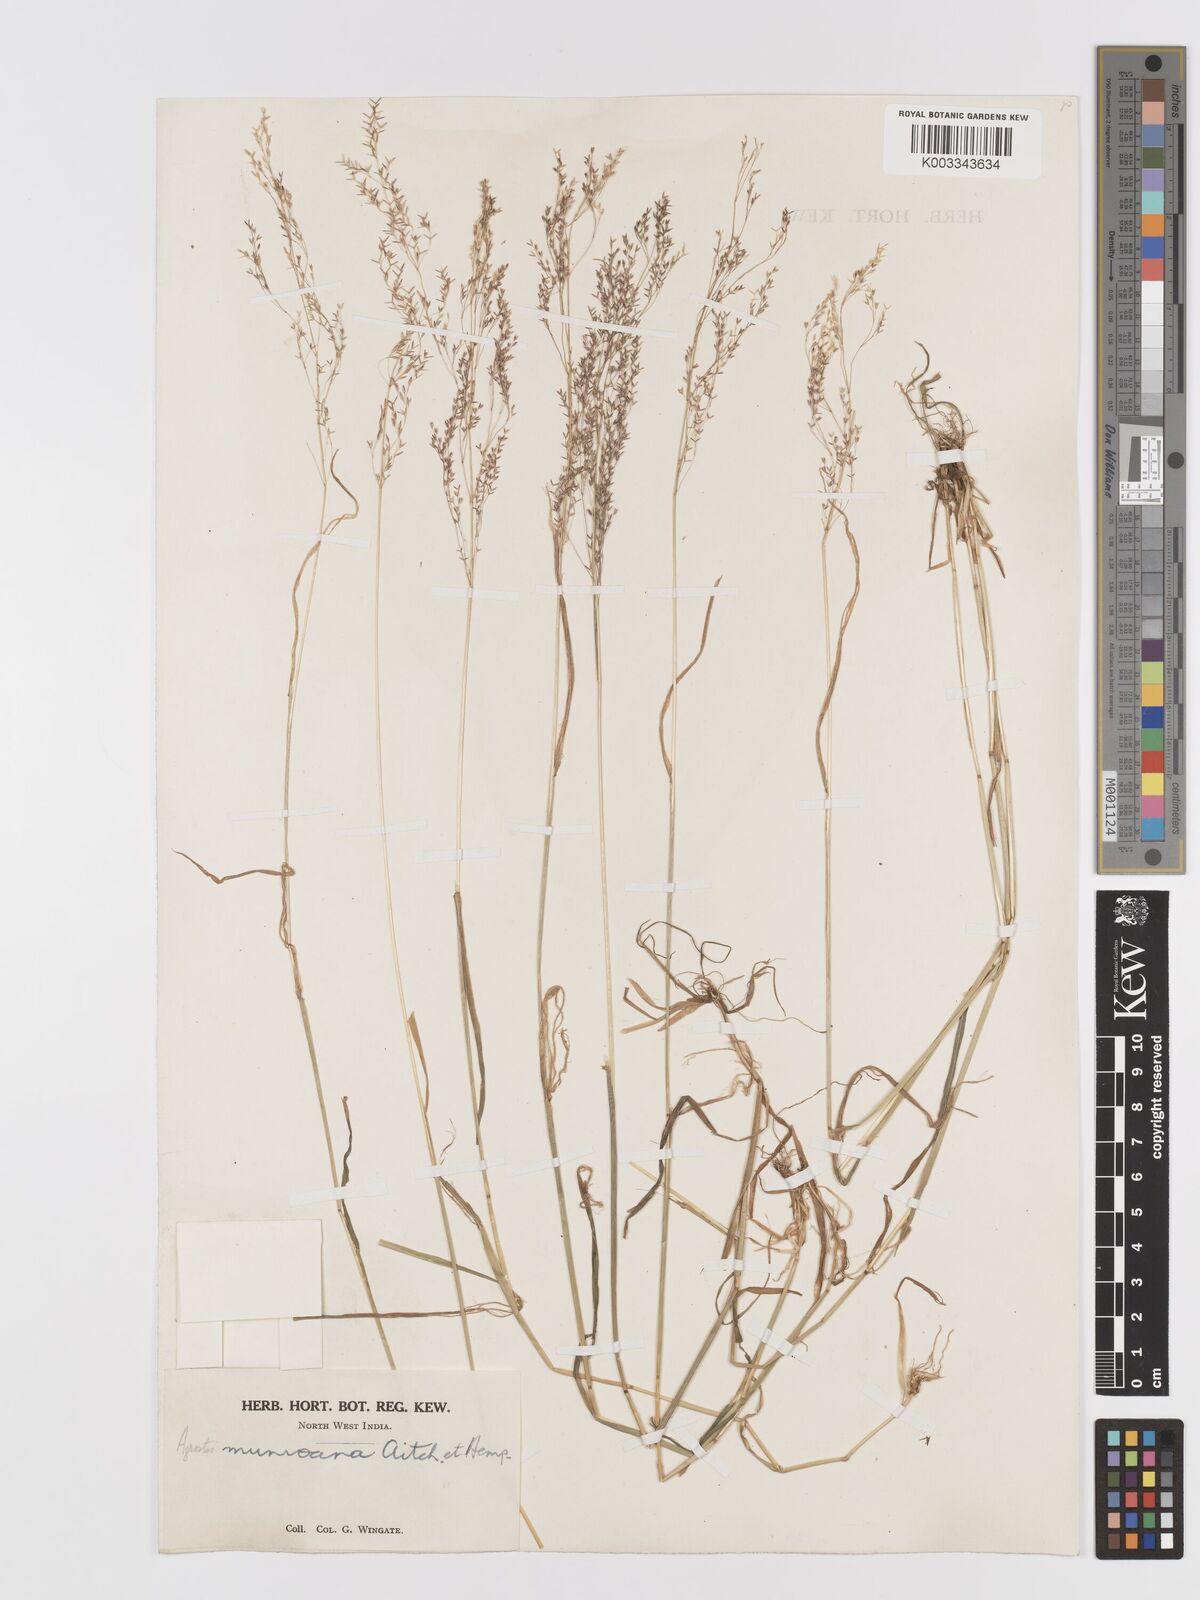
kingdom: Plantae
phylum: Tracheophyta
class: Liliopsida
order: Poales
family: Poaceae
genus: Agrostis
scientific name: Agrostis munroana
